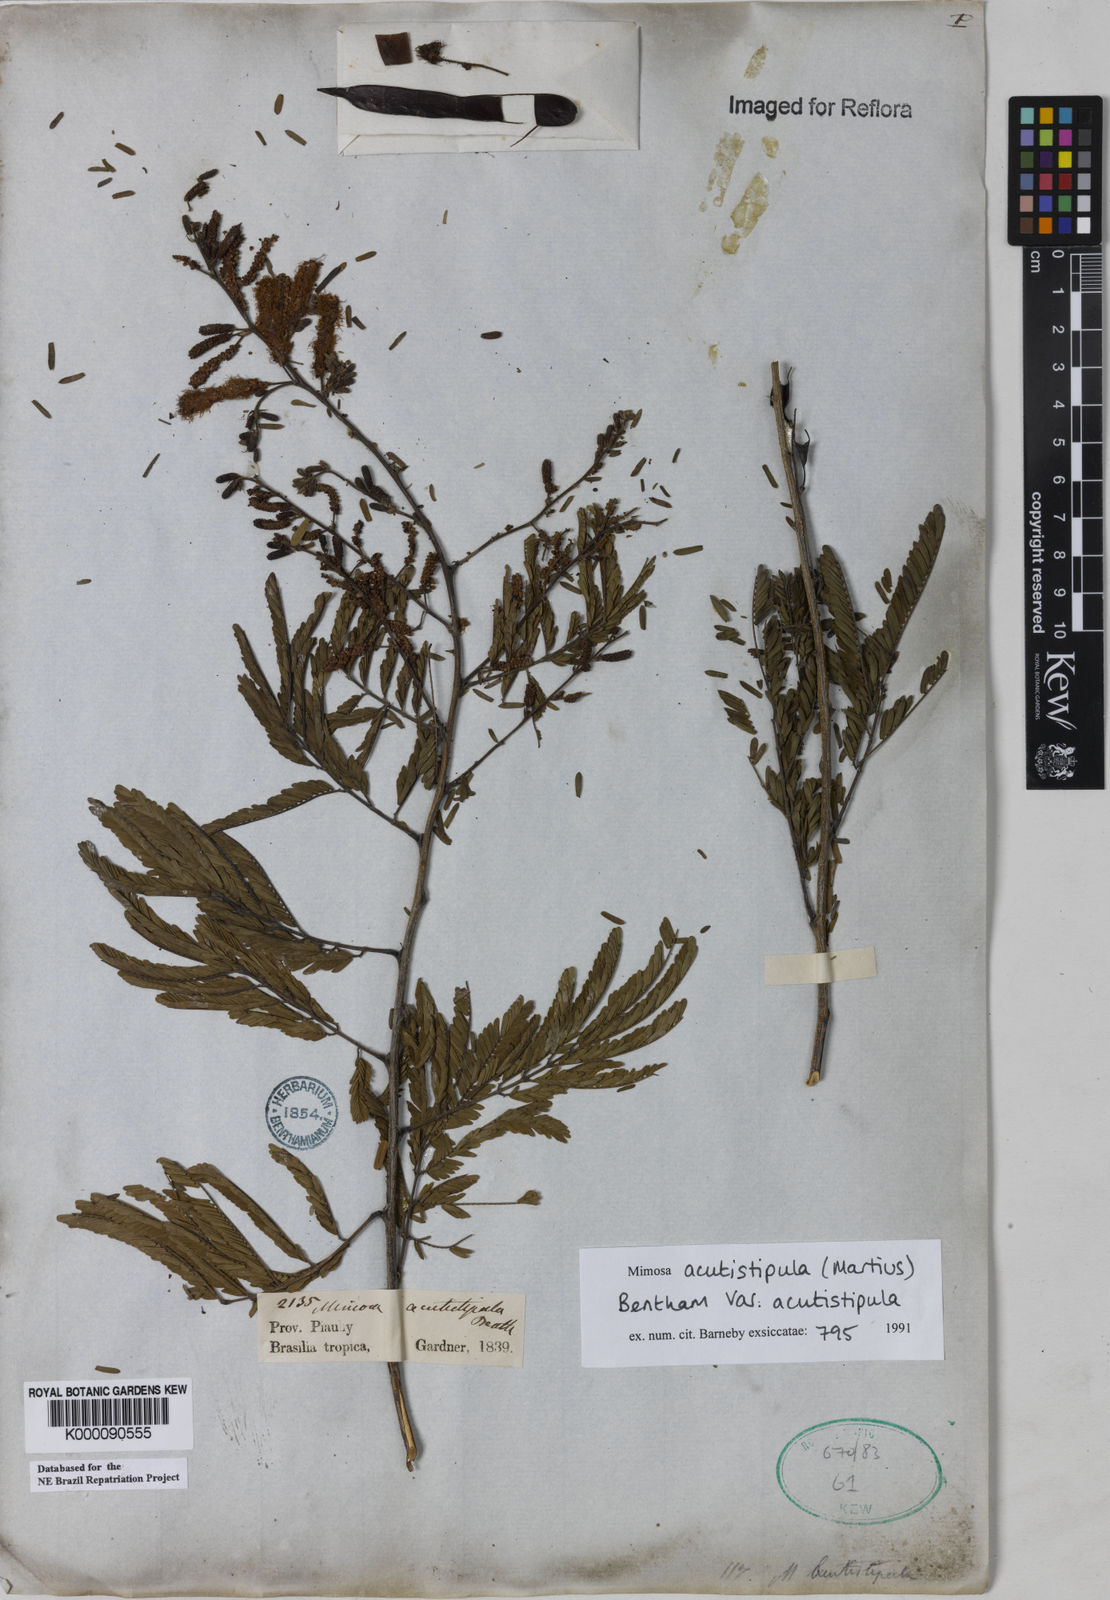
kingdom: Plantae
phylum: Tracheophyta
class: Magnoliopsida
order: Fabales
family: Fabaceae
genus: Mimosa
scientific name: Mimosa acutistipula
